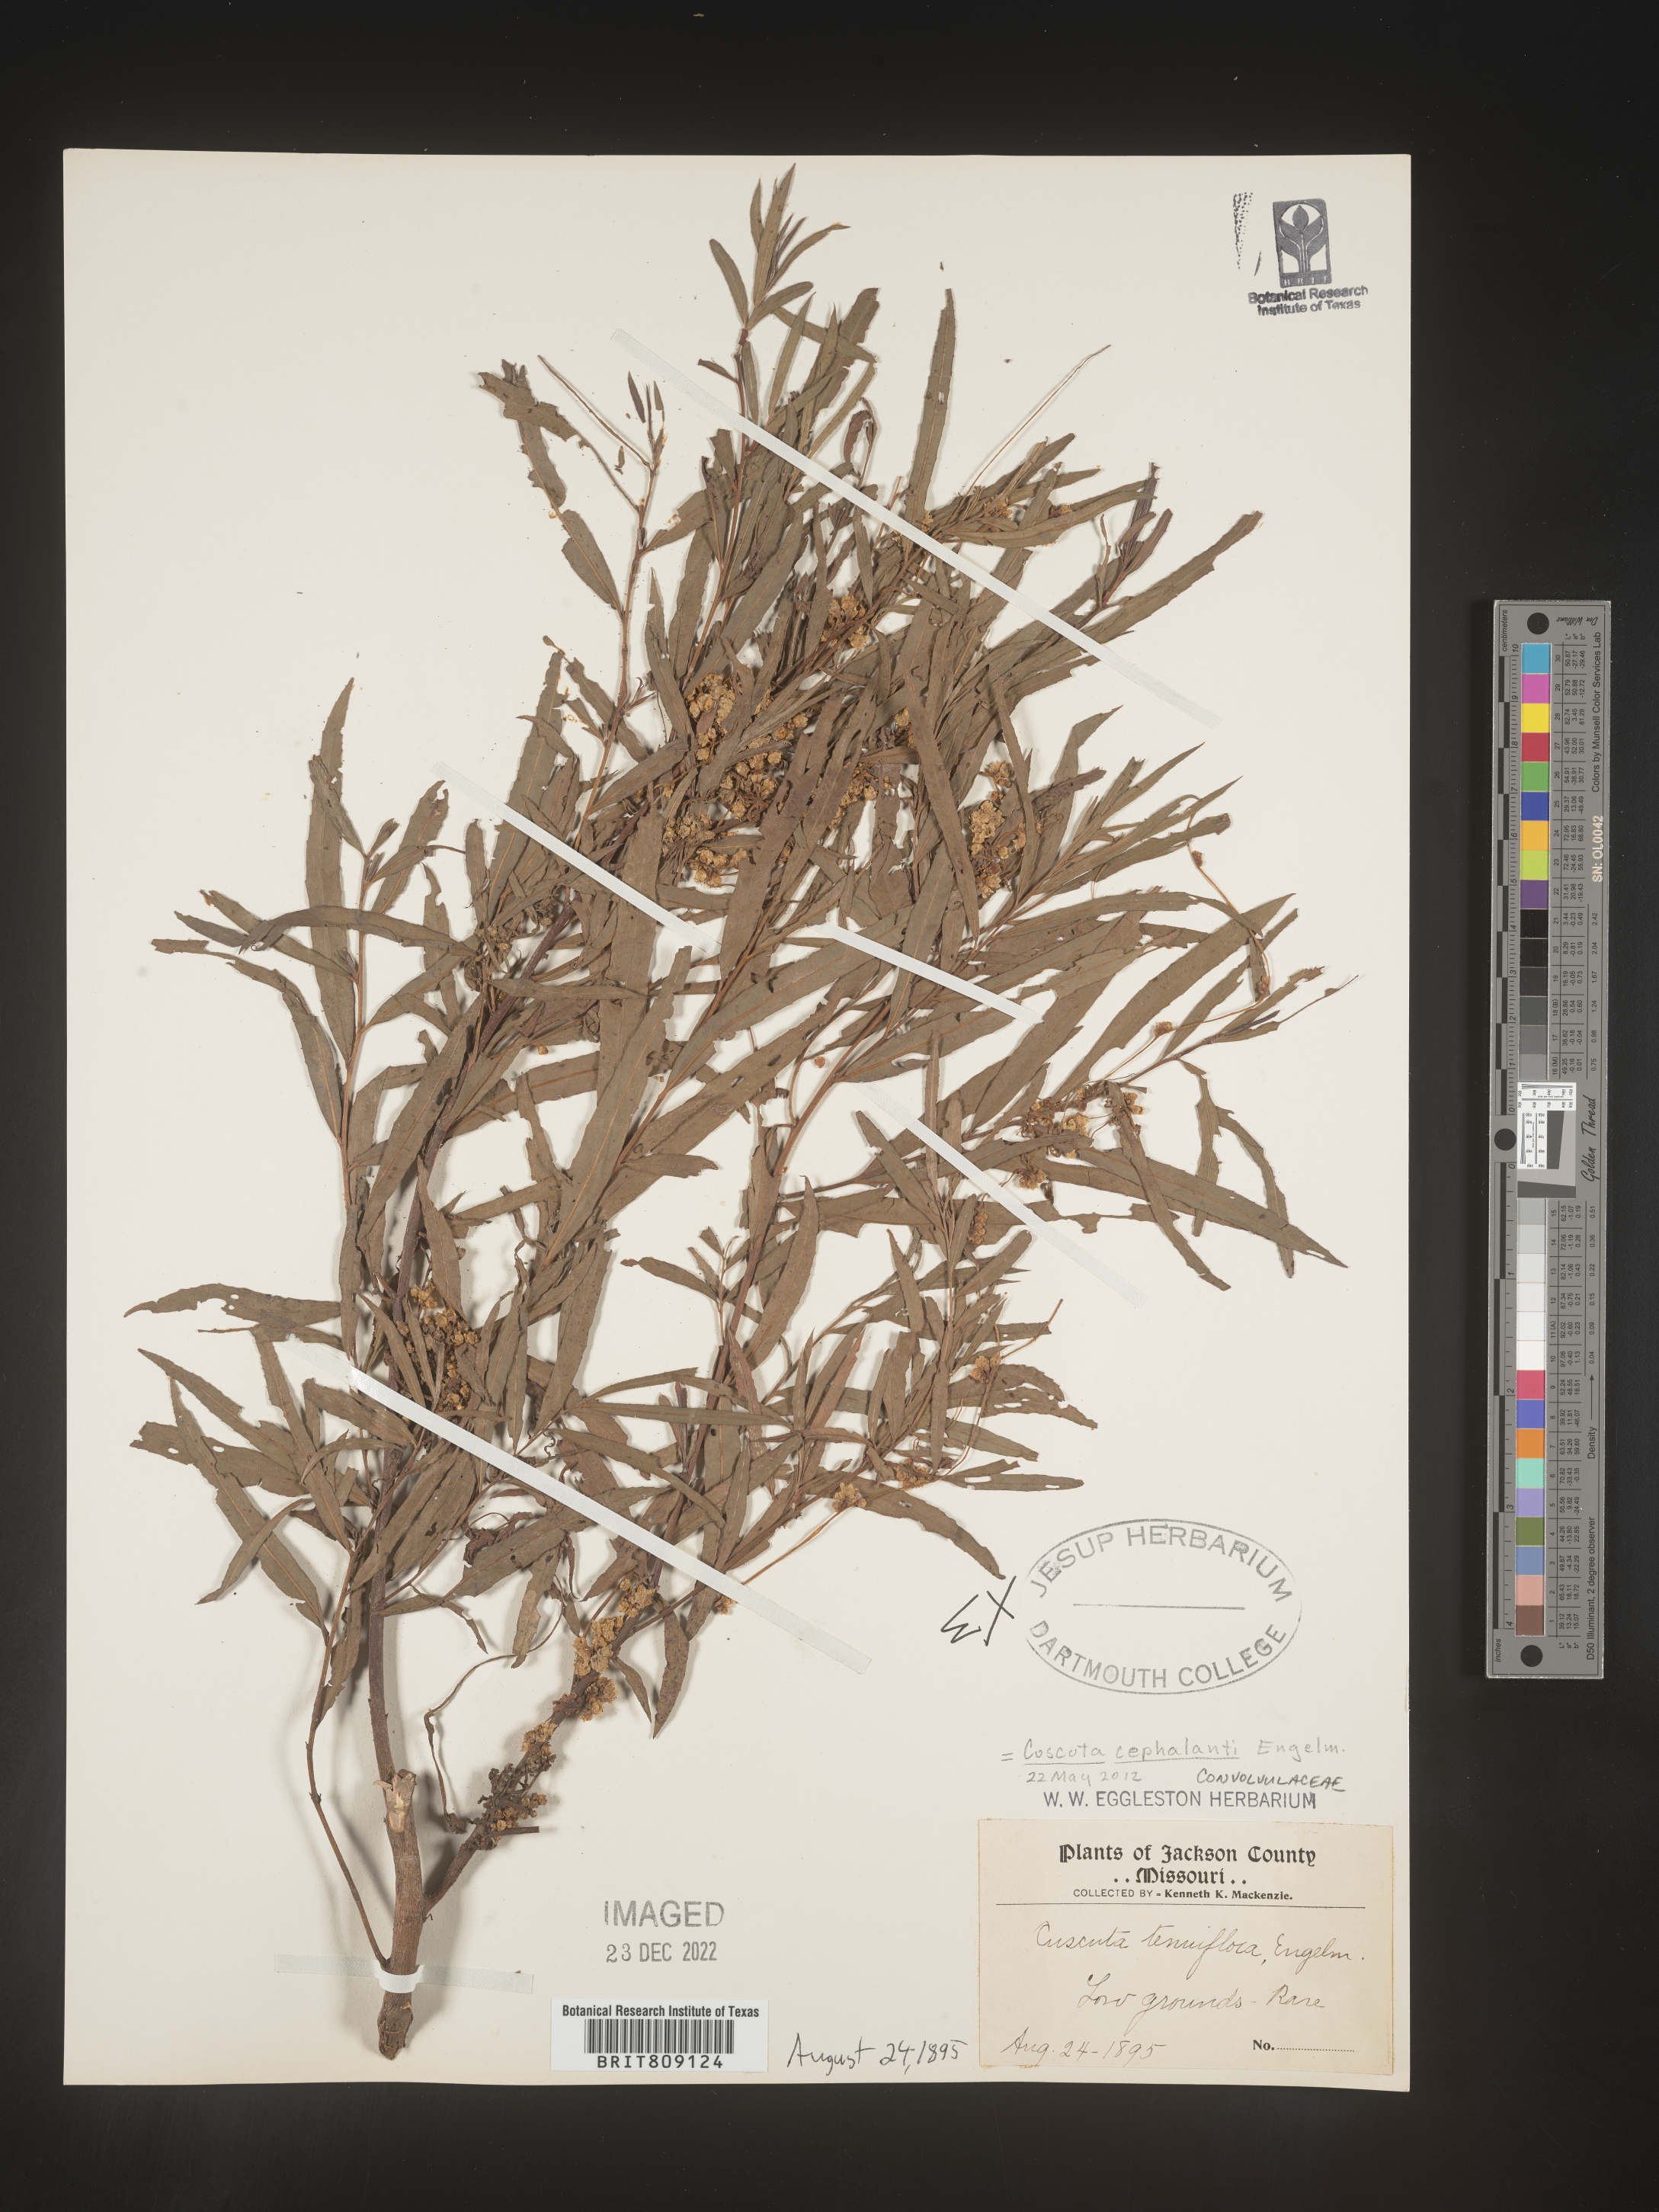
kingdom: Plantae
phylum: Tracheophyta
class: Magnoliopsida
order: Solanales
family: Convolvulaceae
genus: Cuscuta
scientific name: Cuscuta cephalanthi
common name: Button dodder
